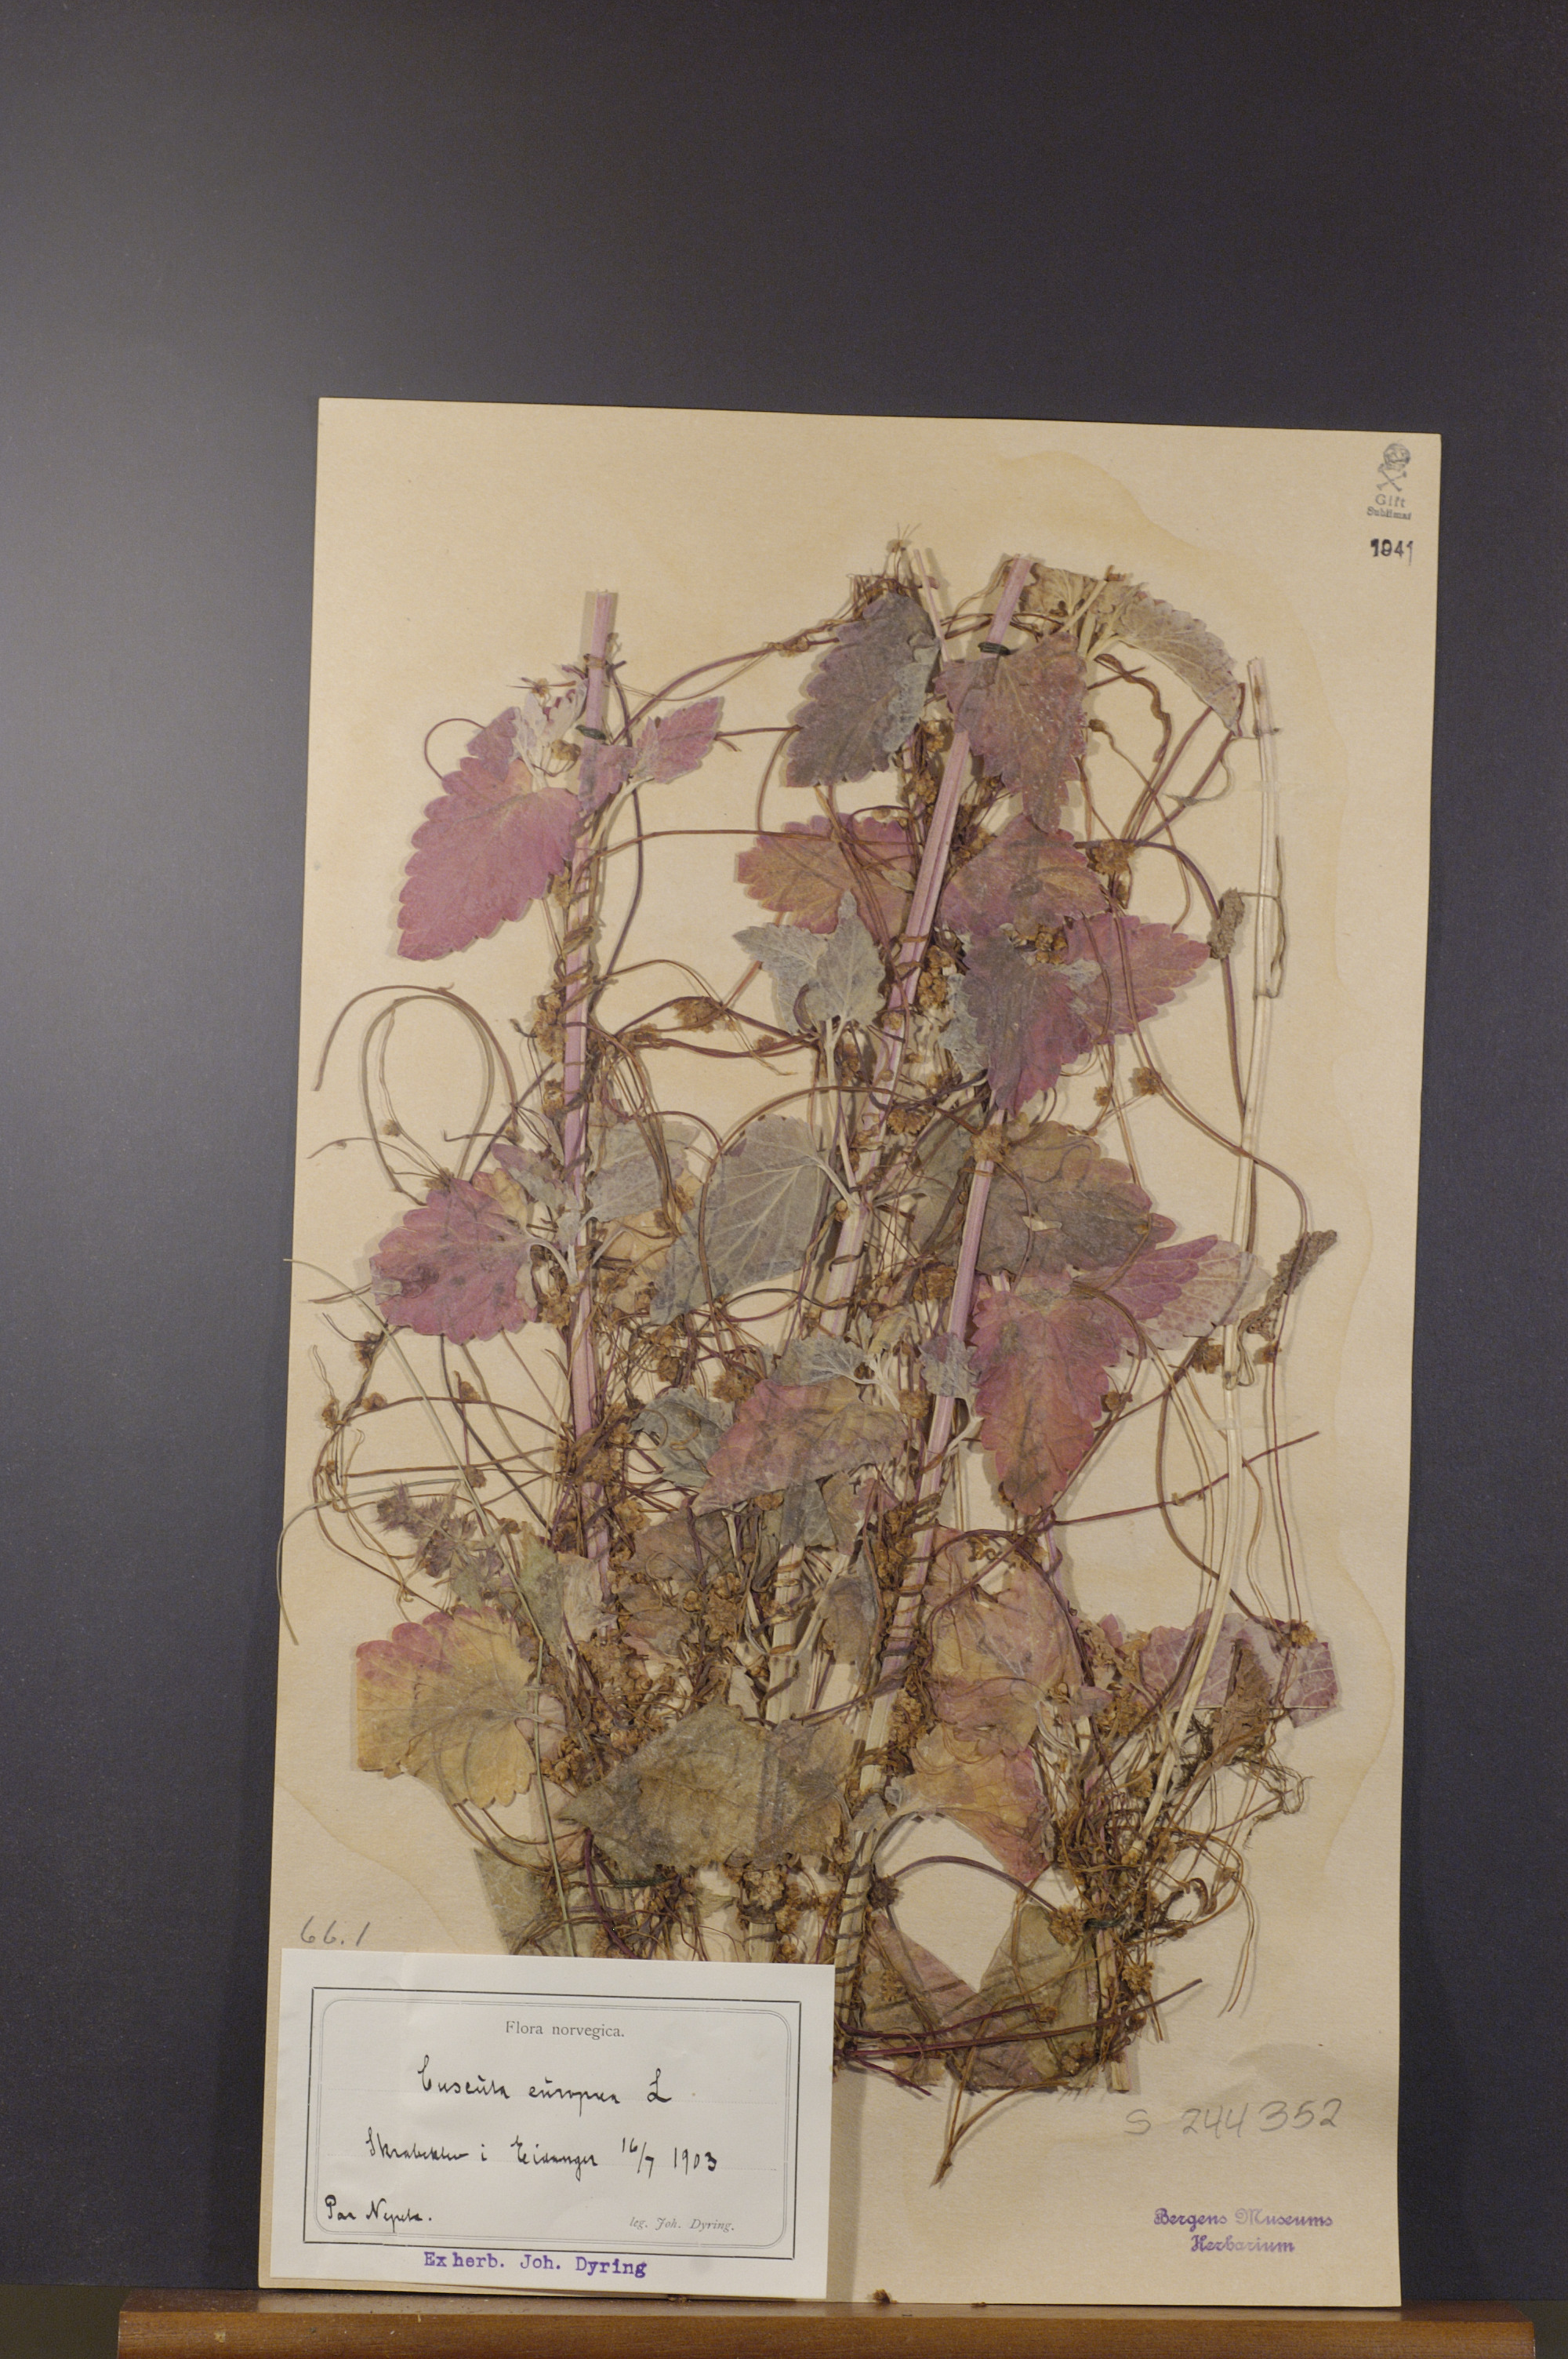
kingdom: Plantae
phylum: Tracheophyta
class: Magnoliopsida
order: Solanales
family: Convolvulaceae
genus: Cuscuta
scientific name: Cuscuta europaea
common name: Greater dodder
